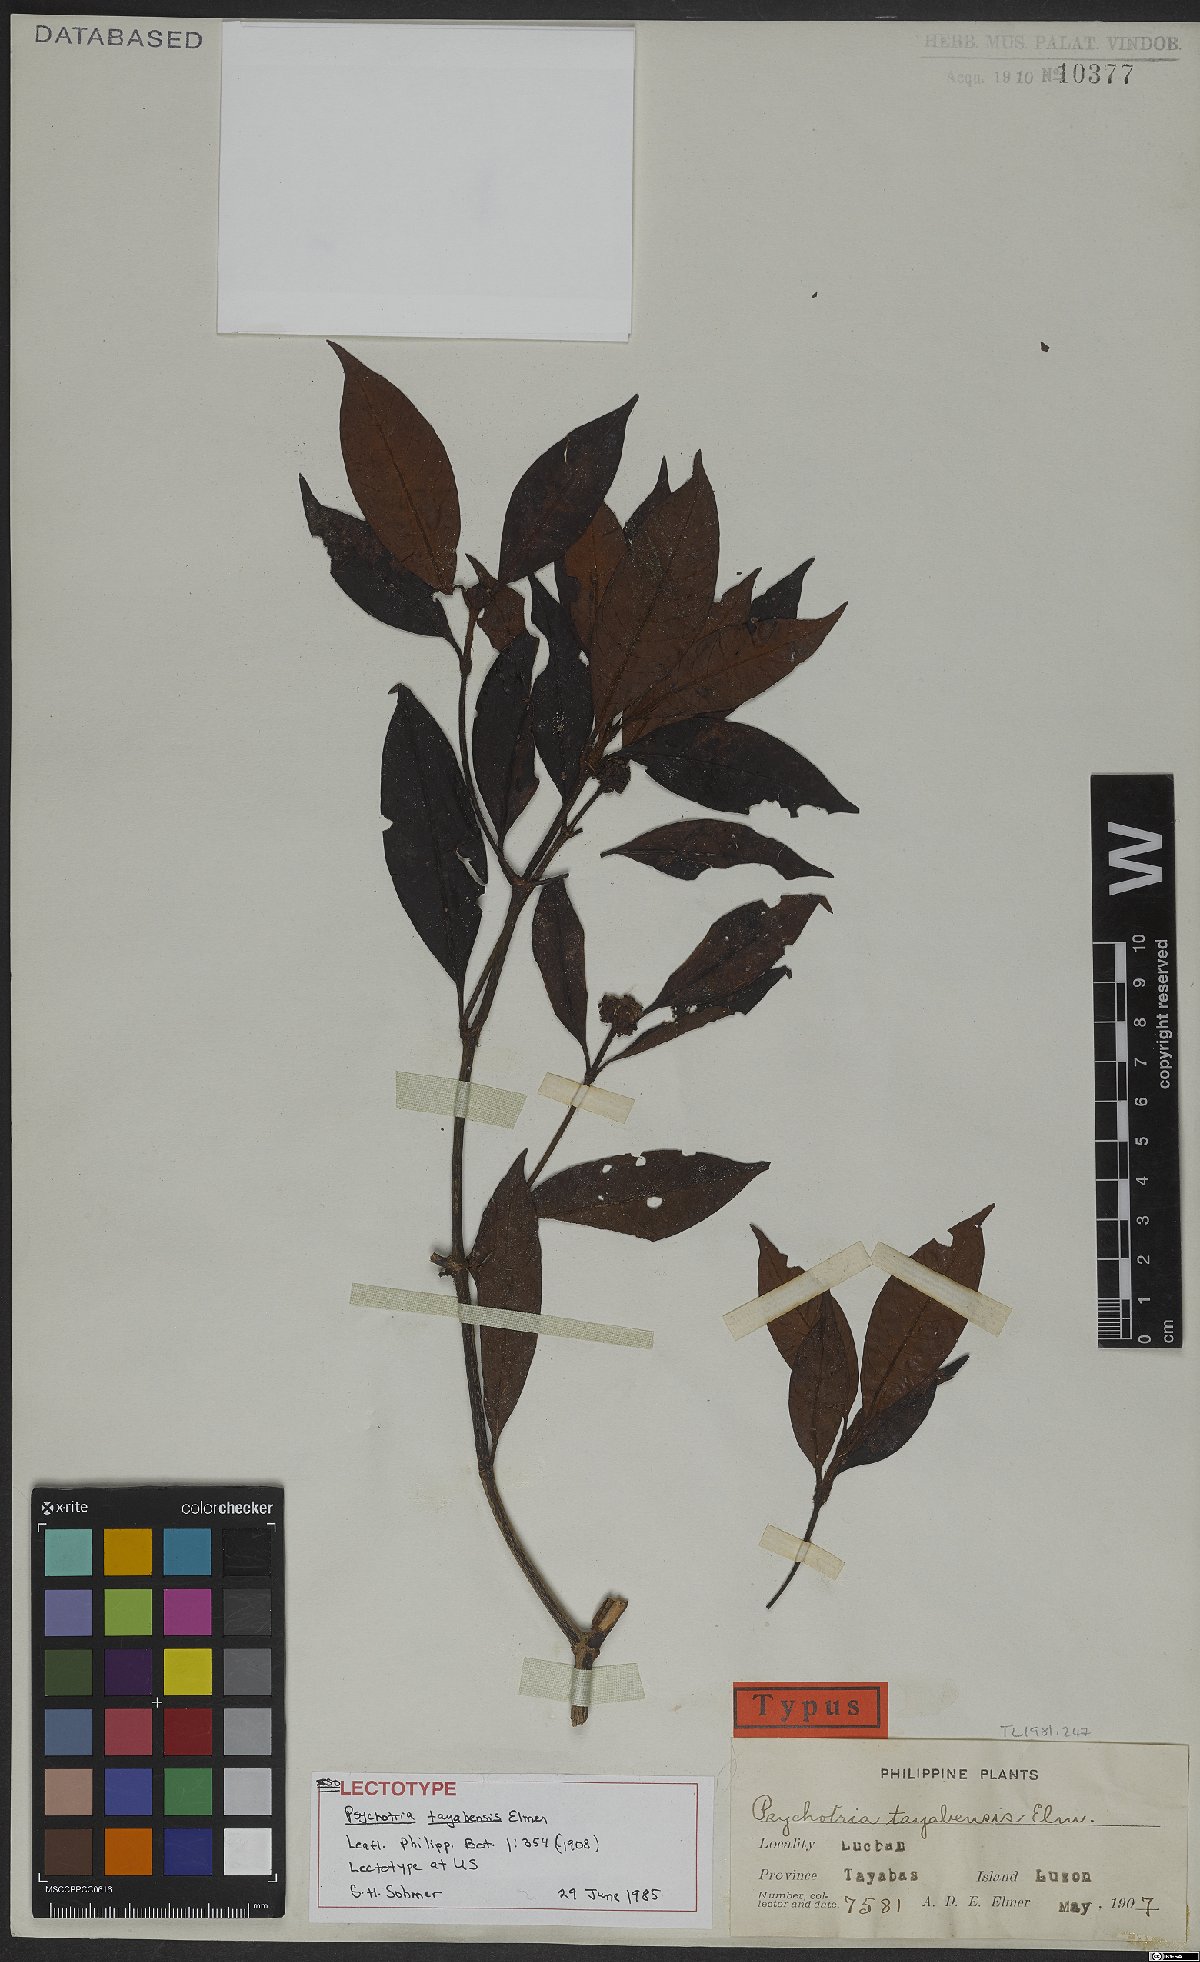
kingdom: Plantae
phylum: Tracheophyta
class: Magnoliopsida
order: Gentianales
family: Rubiaceae
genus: Psychotria
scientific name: Psychotria tayabensis
